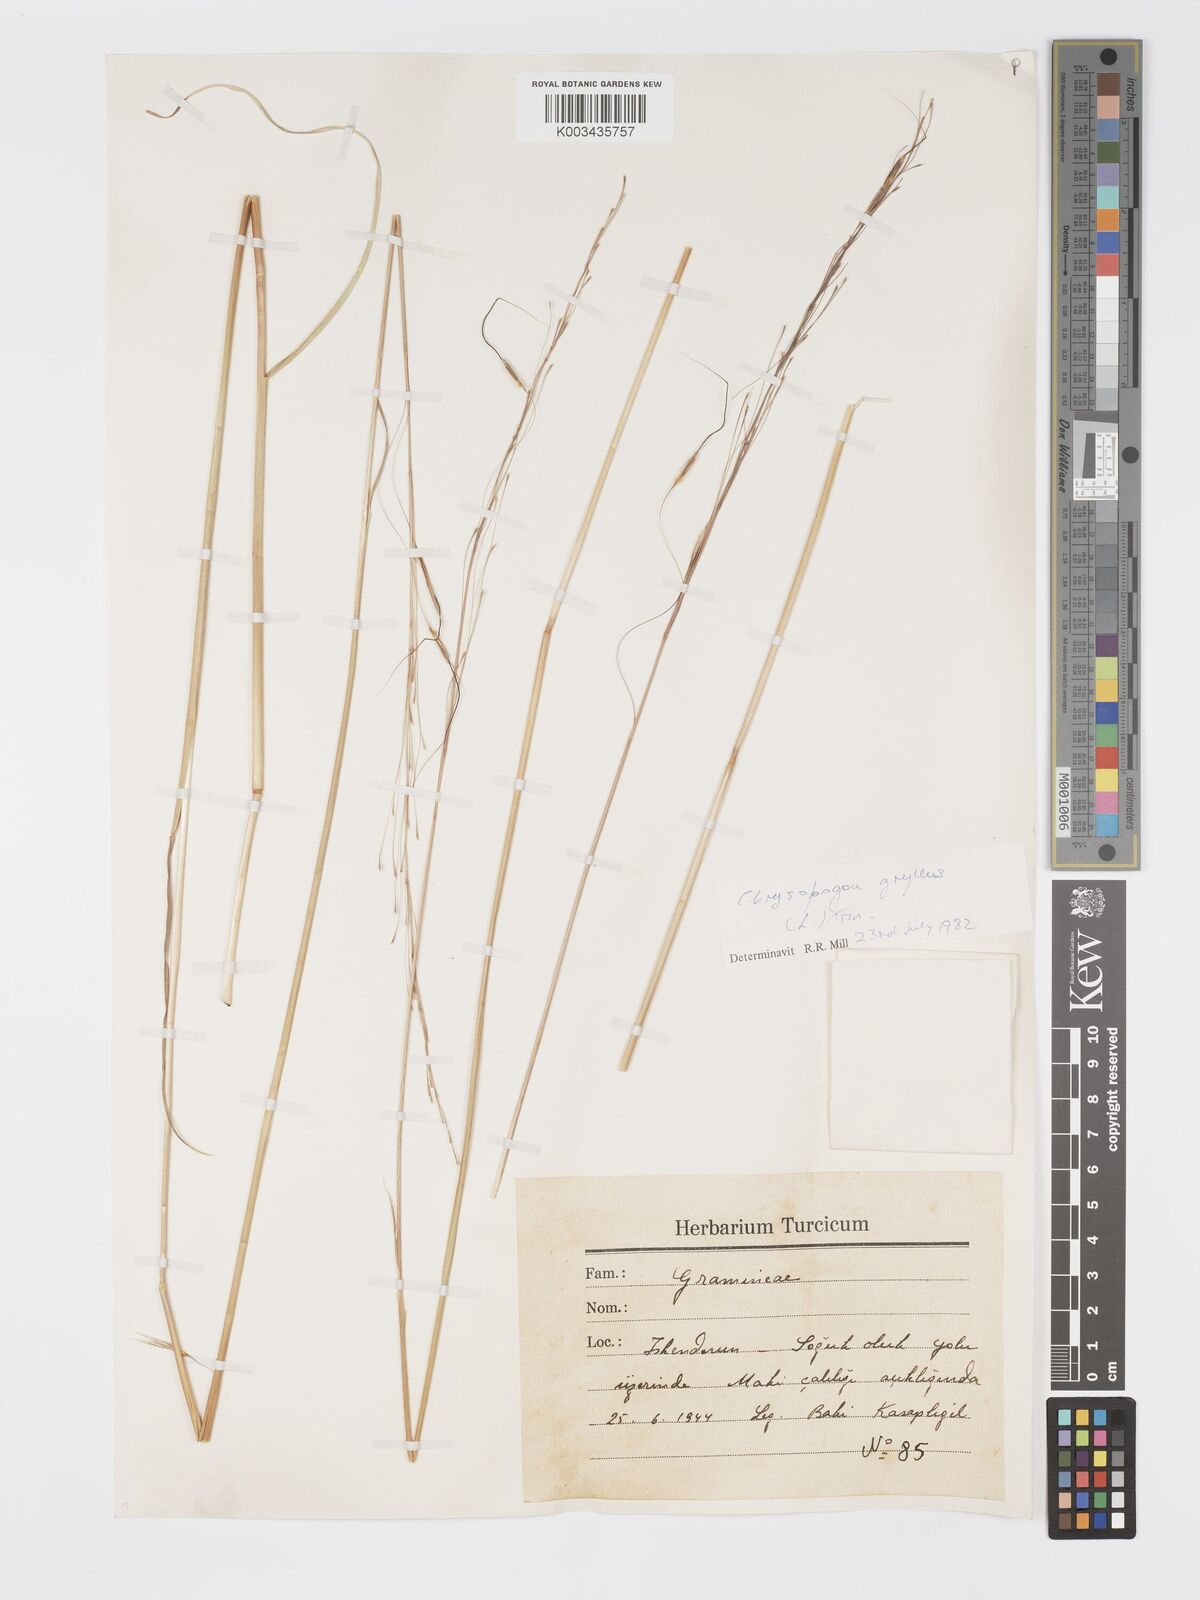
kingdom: Plantae
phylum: Tracheophyta
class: Liliopsida
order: Poales
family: Poaceae
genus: Chrysopogon
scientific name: Chrysopogon gryllus
